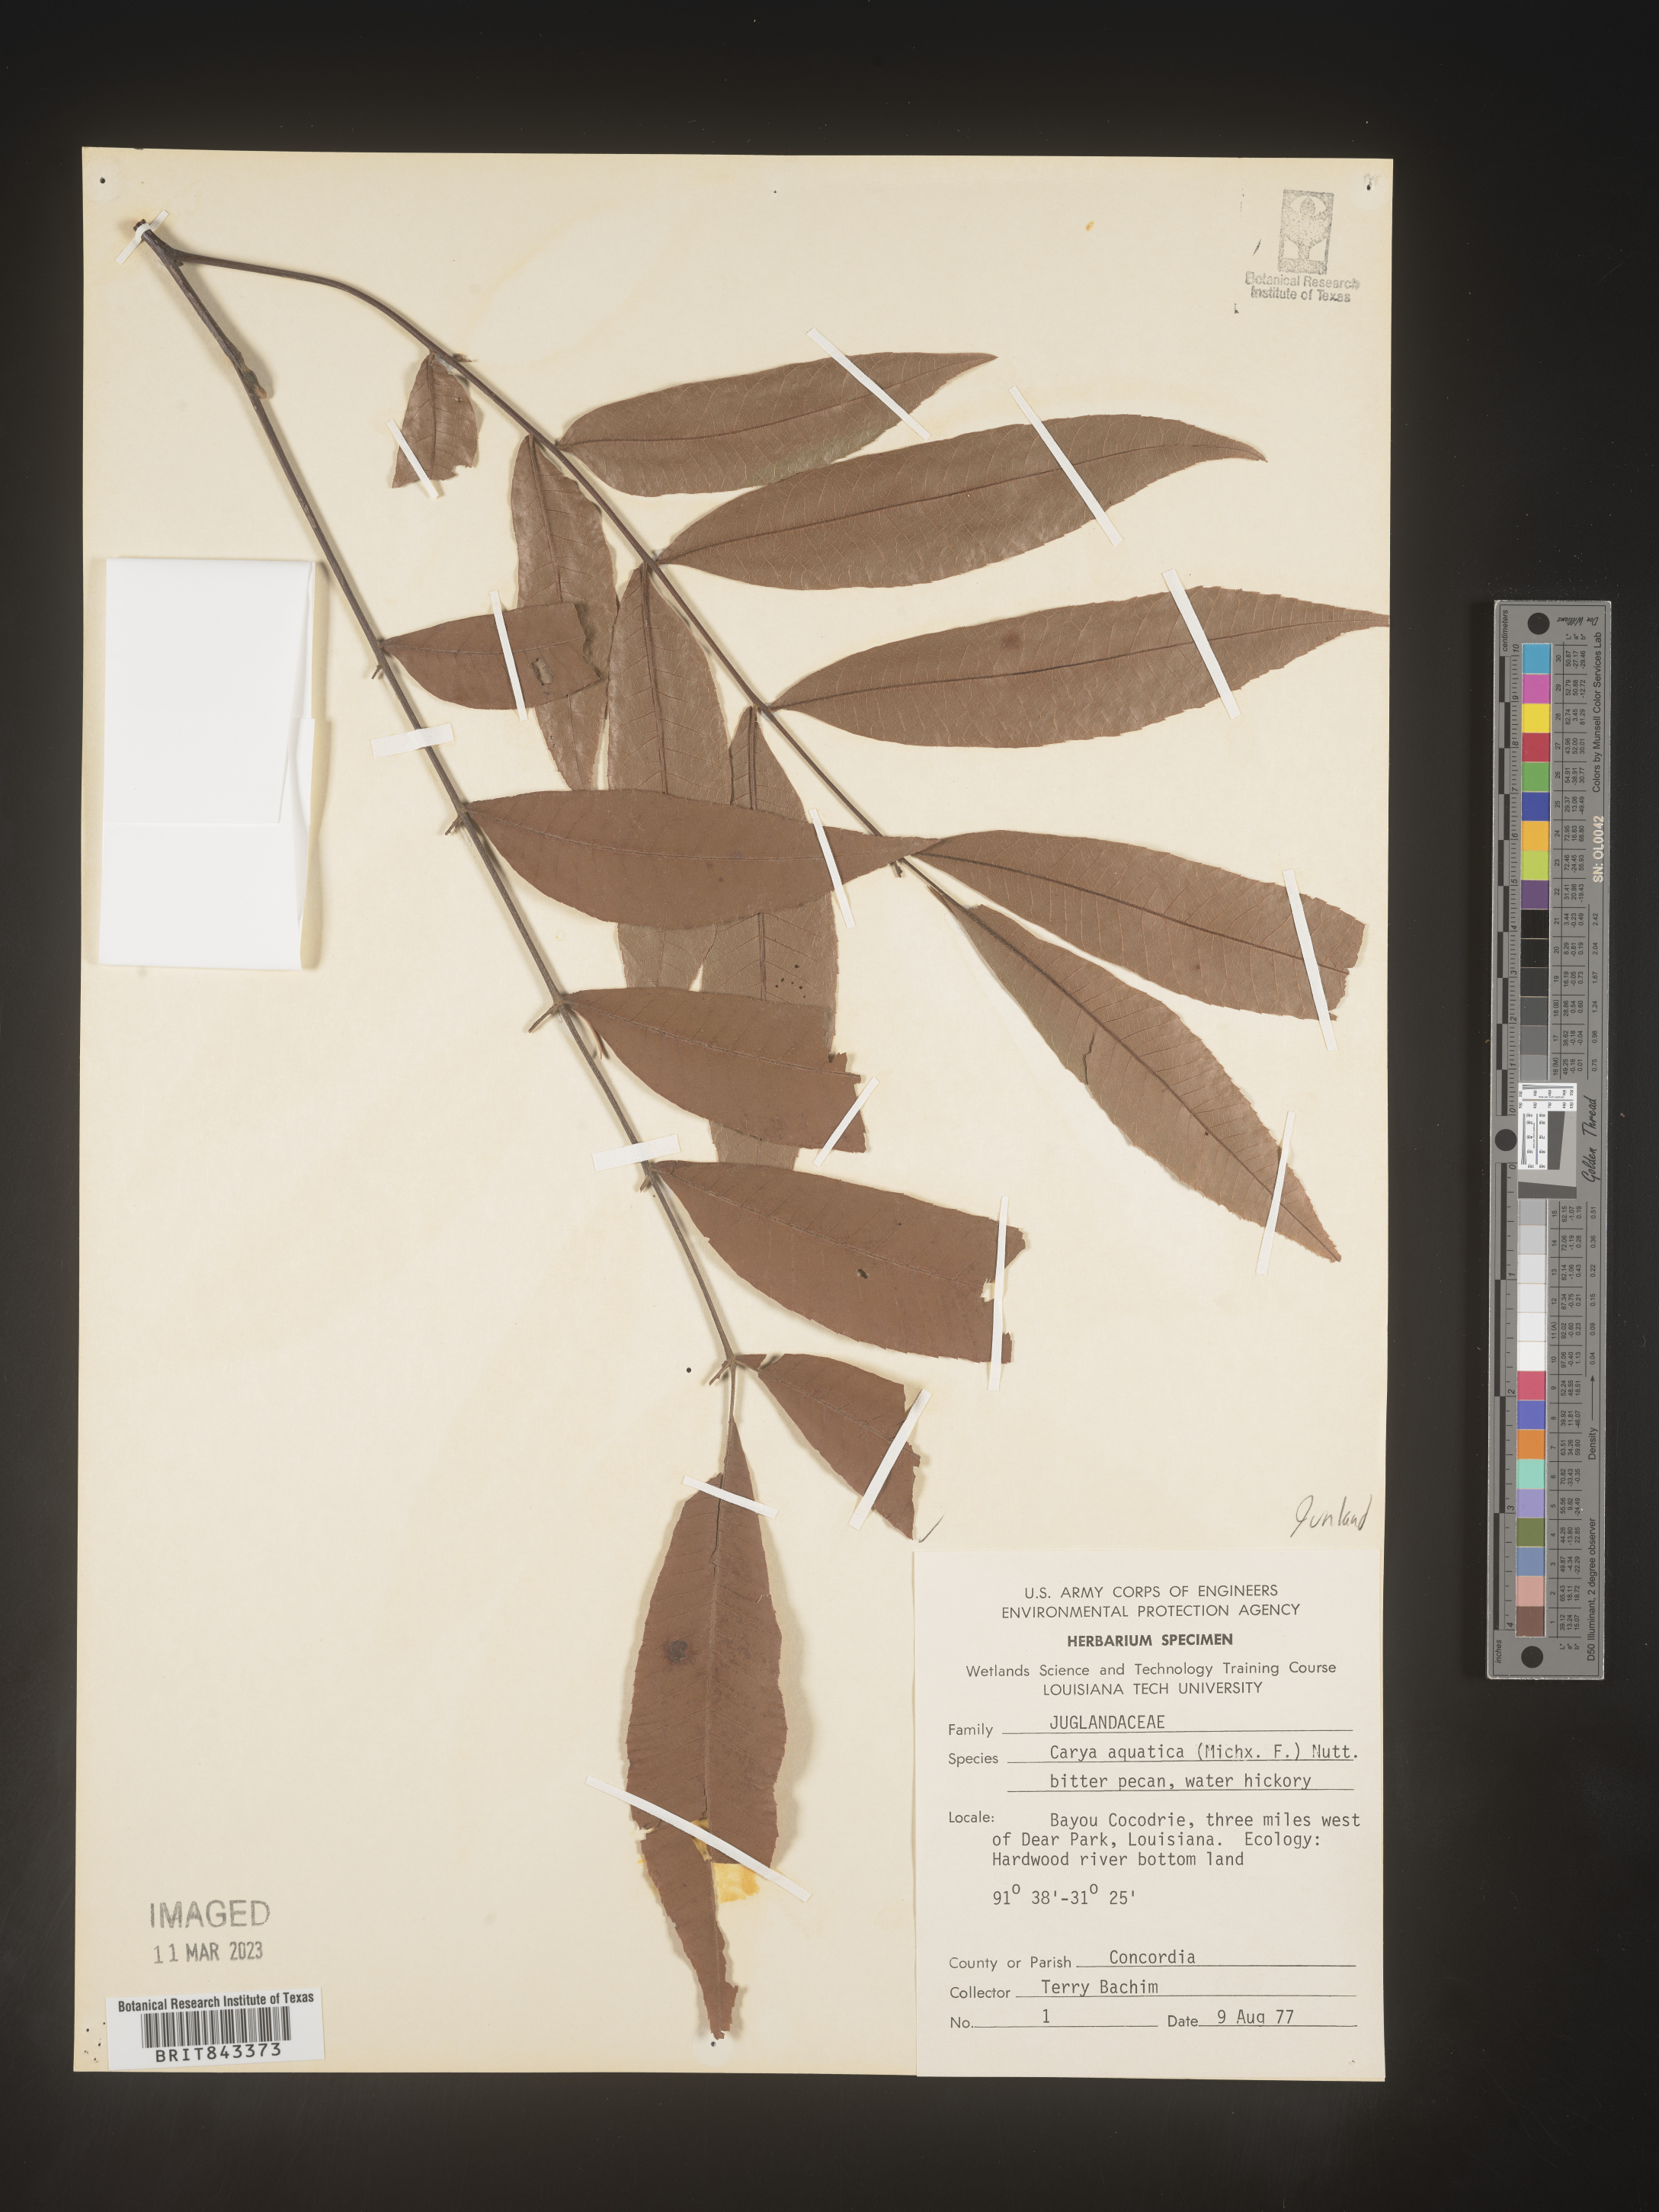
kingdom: Plantae
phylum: Tracheophyta
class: Magnoliopsida
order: Fagales
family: Juglandaceae
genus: Carya
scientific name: Carya aquatica
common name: Water hickory
